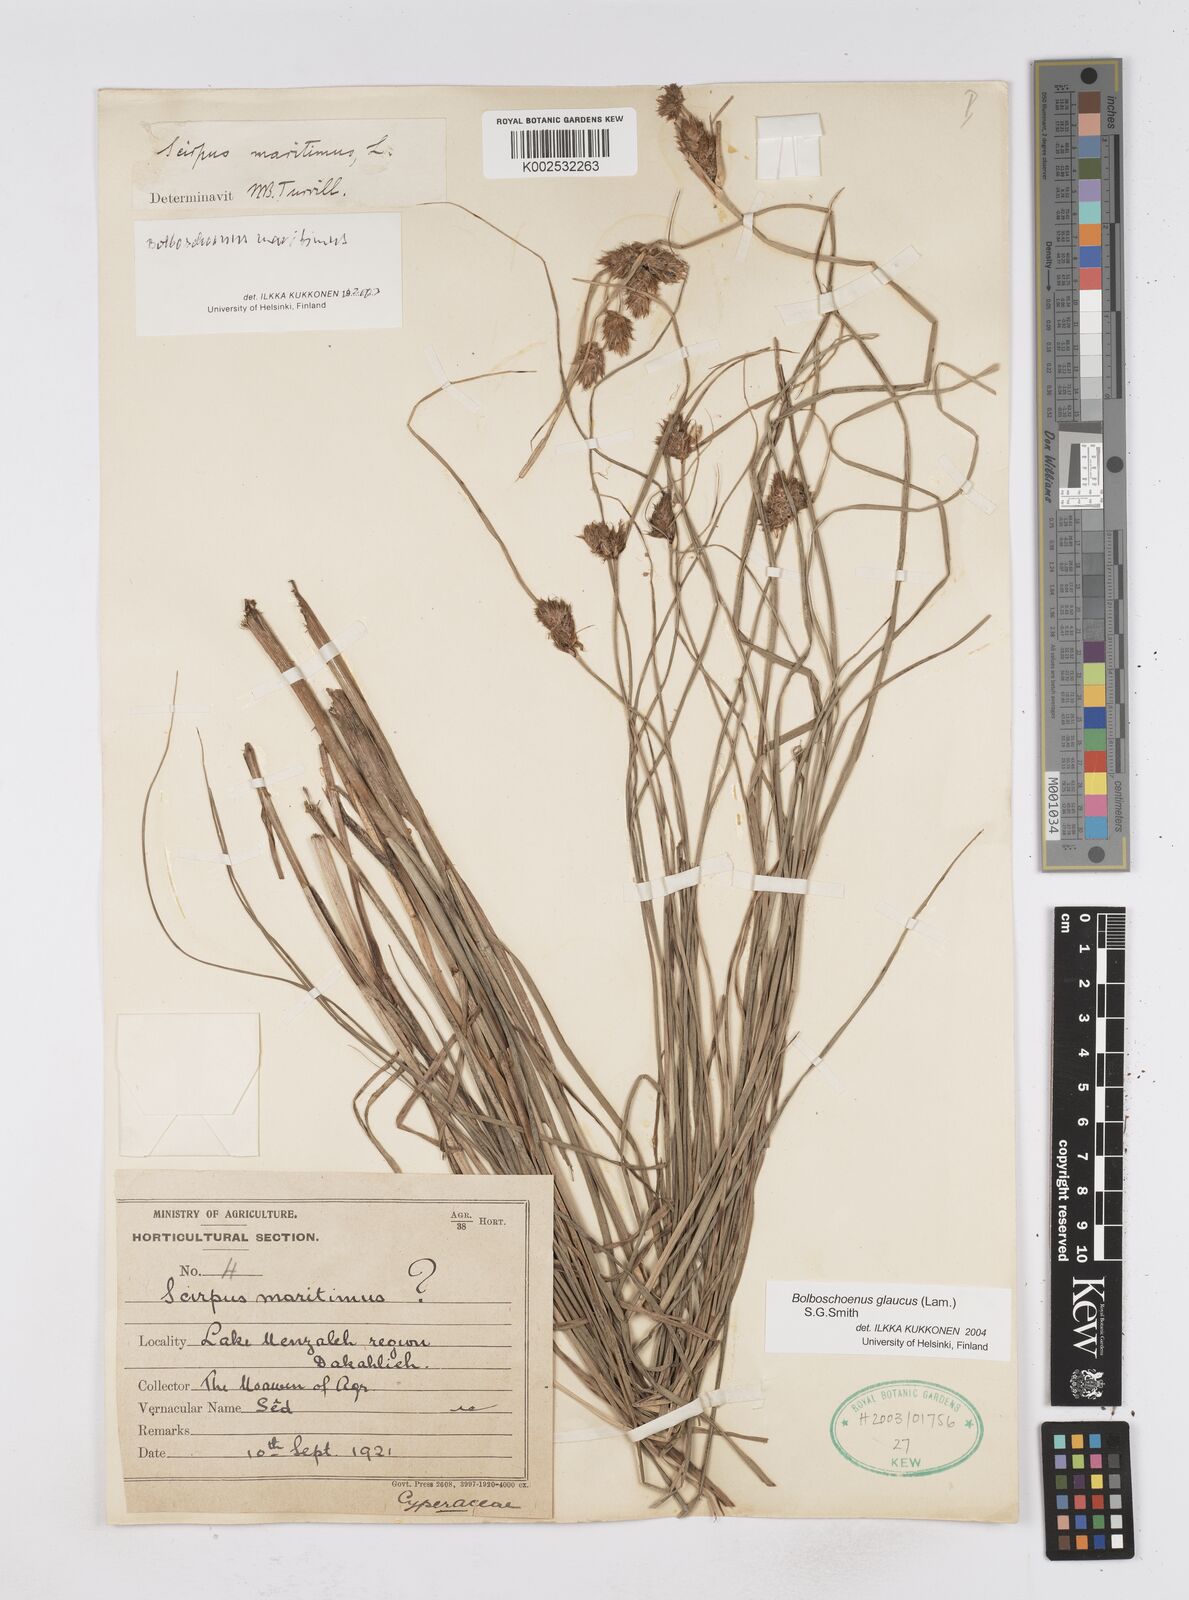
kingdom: Plantae
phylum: Tracheophyta
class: Liliopsida
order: Poales
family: Cyperaceae
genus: Bolboschoenus
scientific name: Bolboschoenus maritimus
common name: Sea club-rush
